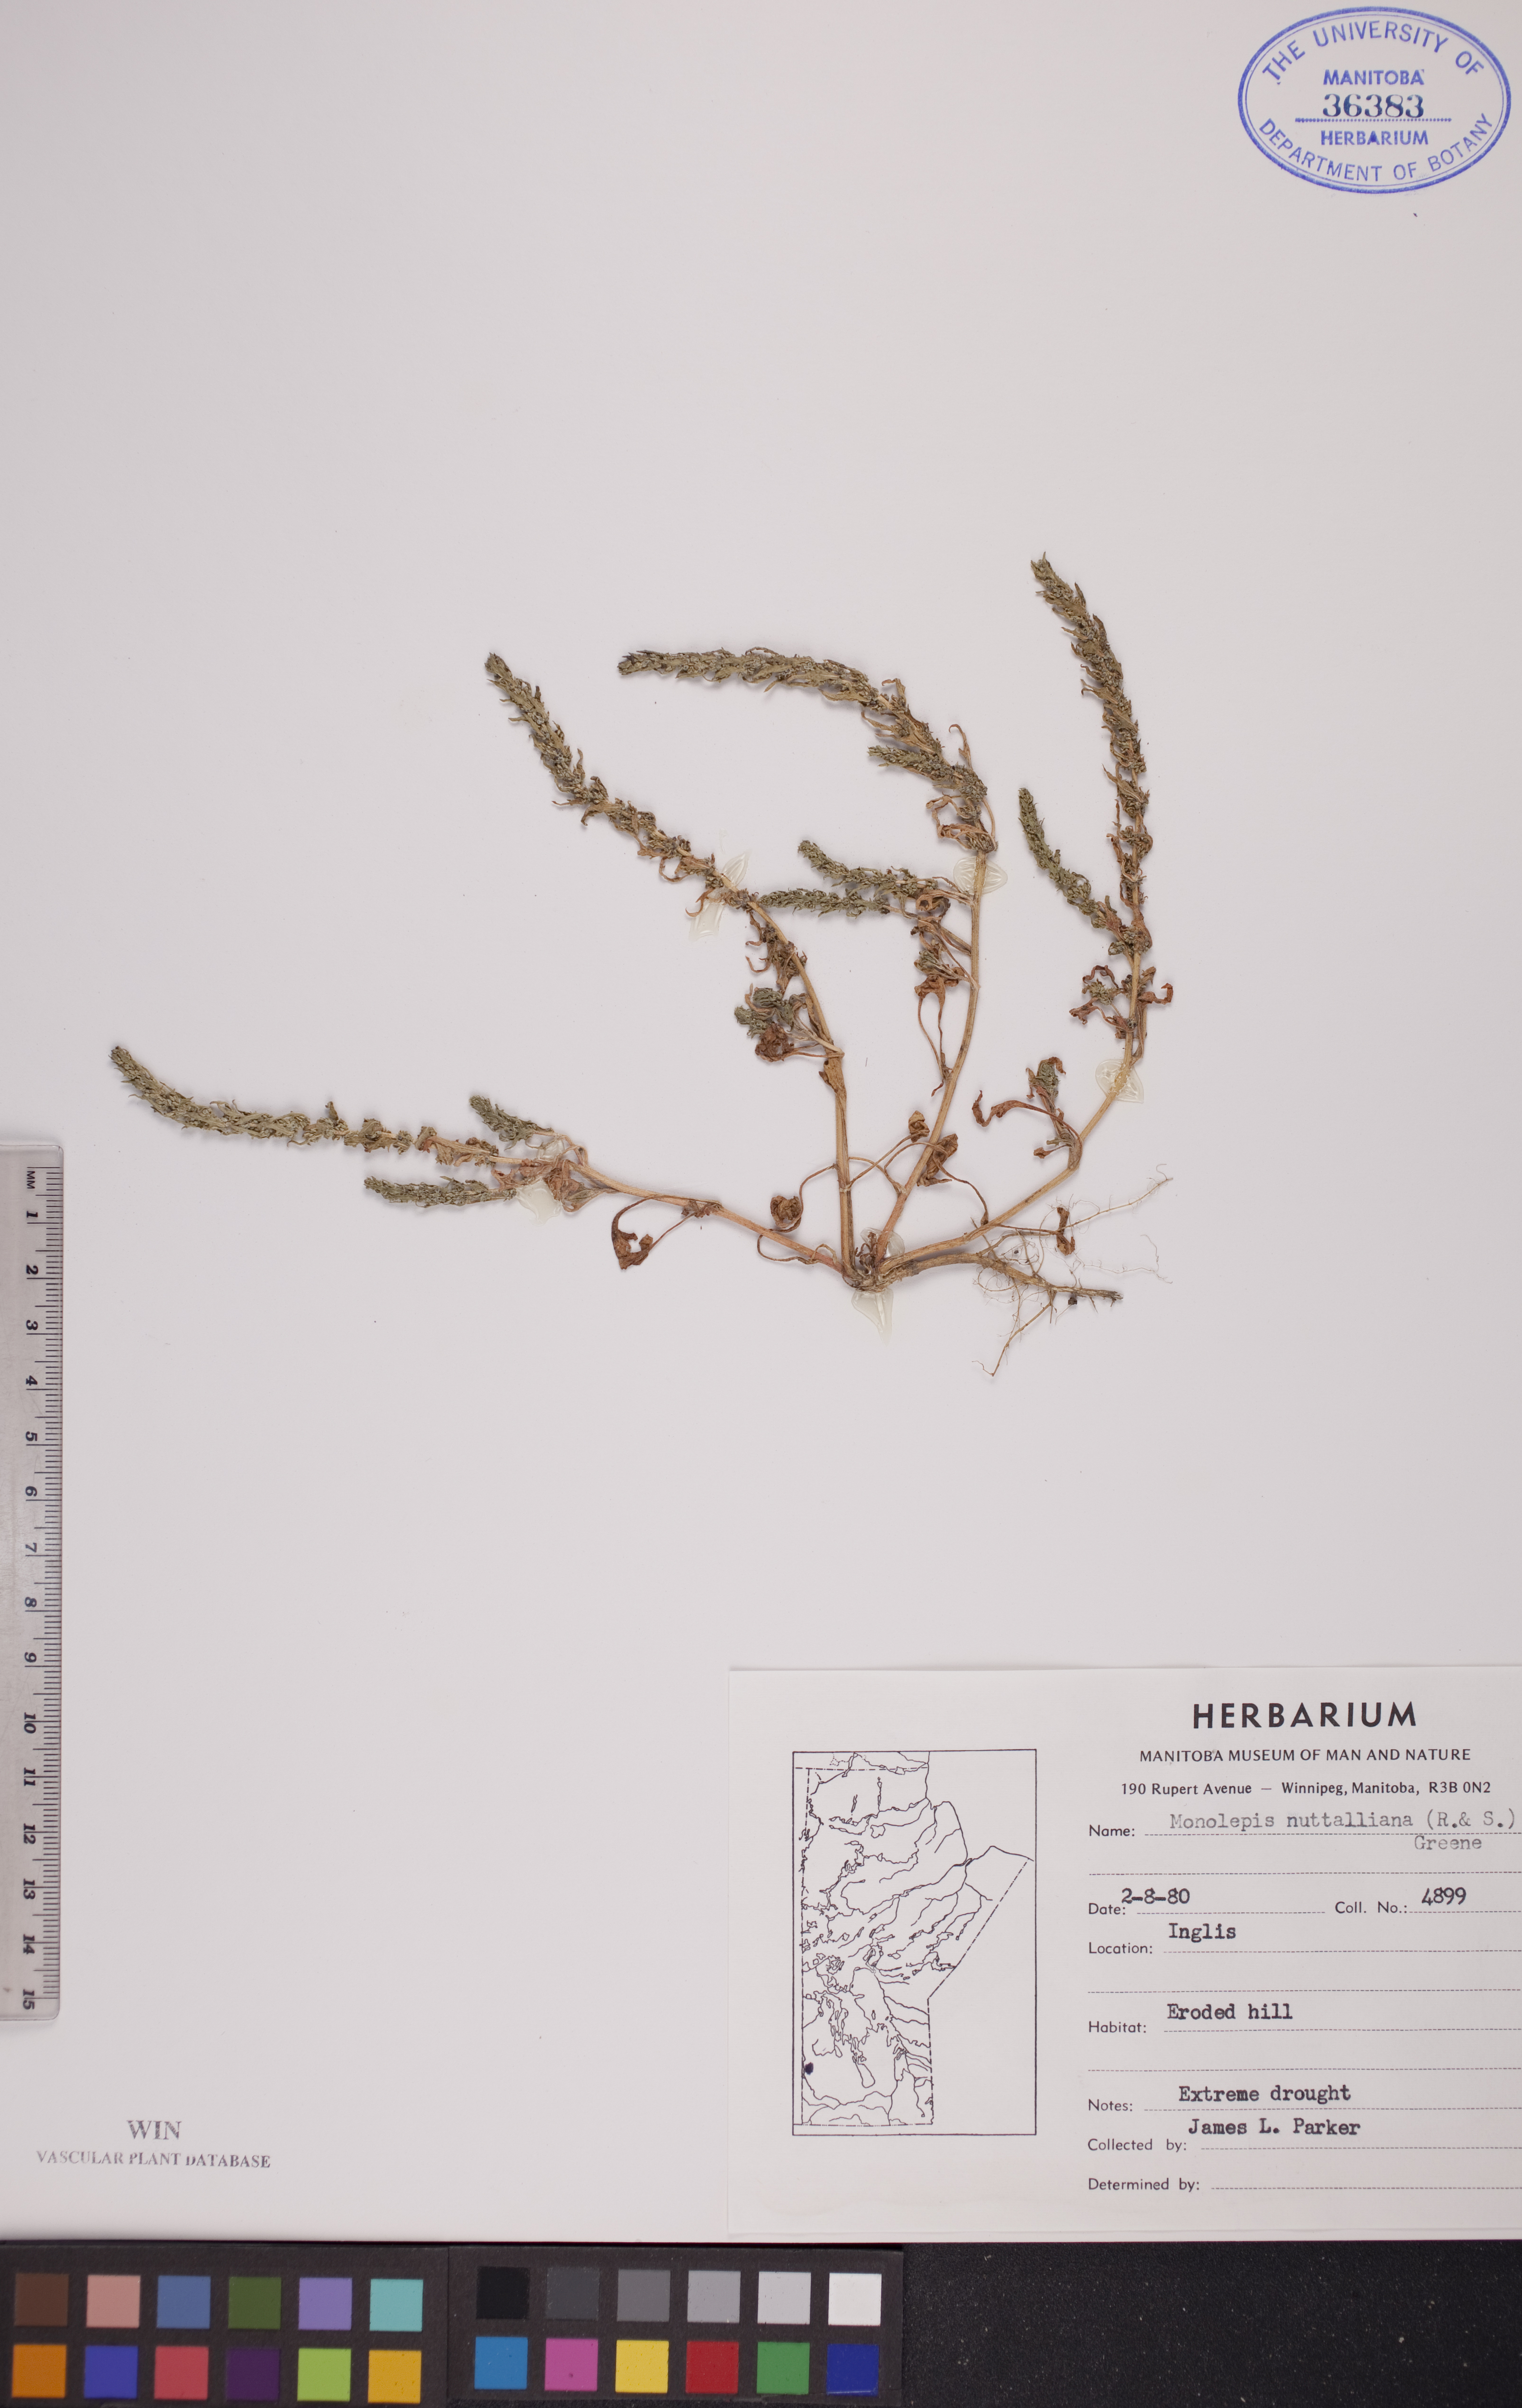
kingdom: Plantae
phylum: Tracheophyta
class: Magnoliopsida
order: Caryophyllales
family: Amaranthaceae
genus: Blitum
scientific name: Blitum nuttallianum
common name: Poverty-weed
